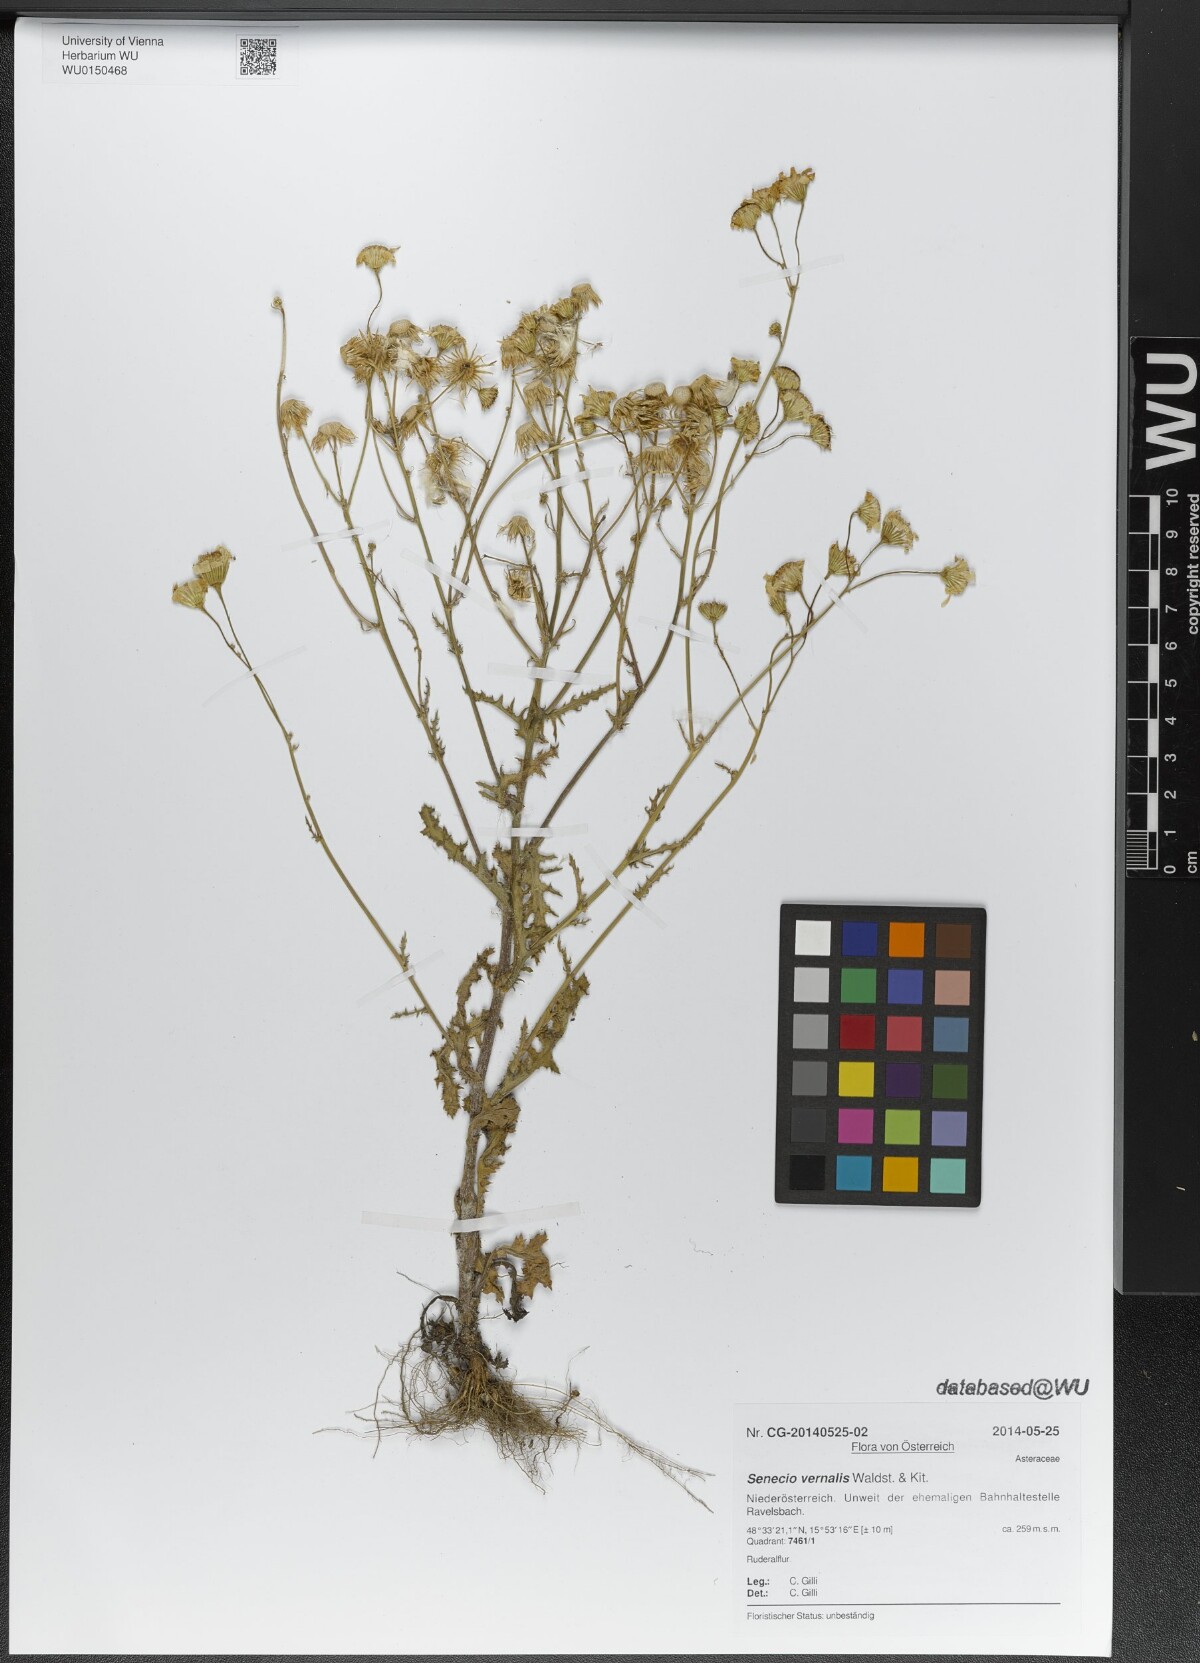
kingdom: Plantae
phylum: Tracheophyta
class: Magnoliopsida
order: Asterales
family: Asteraceae
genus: Senecio
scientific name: Senecio vernalis
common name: Eastern groundsel
